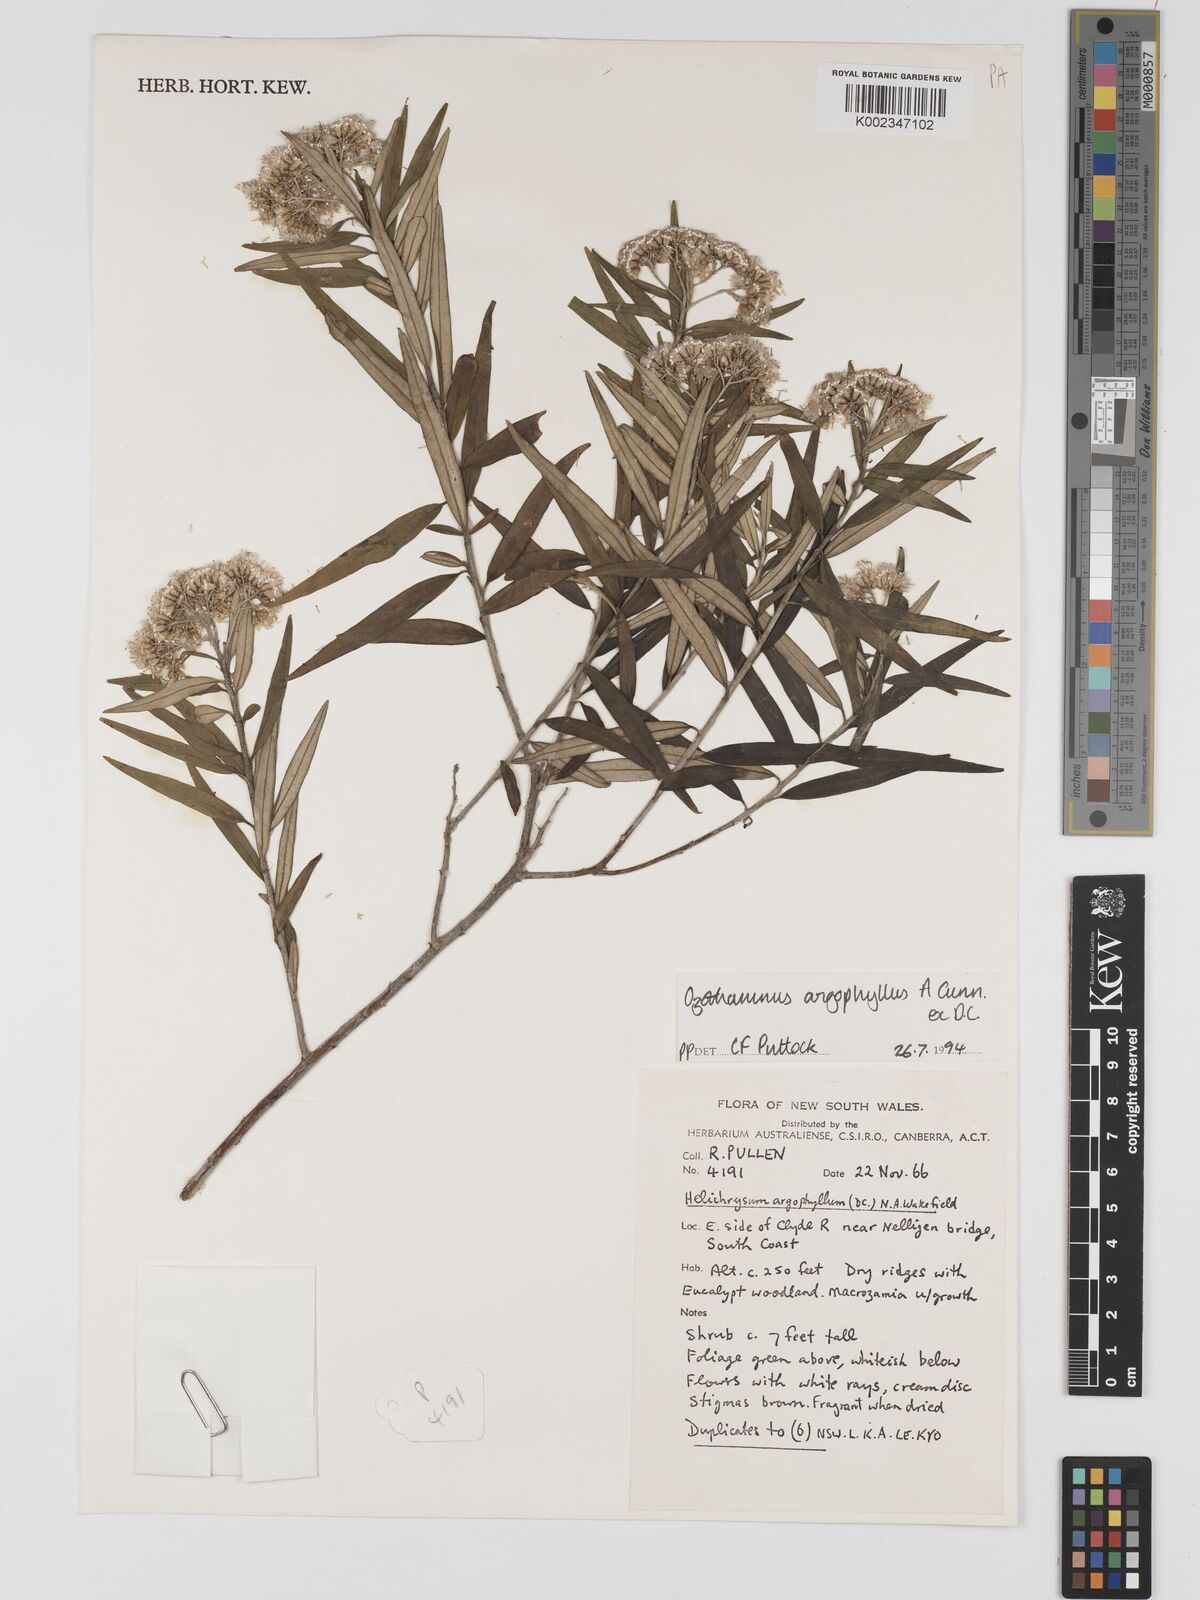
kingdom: Plantae
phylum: Tracheophyta
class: Magnoliopsida
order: Asterales
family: Asteraceae
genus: Ozothamnus
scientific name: Ozothamnus argophyllus
